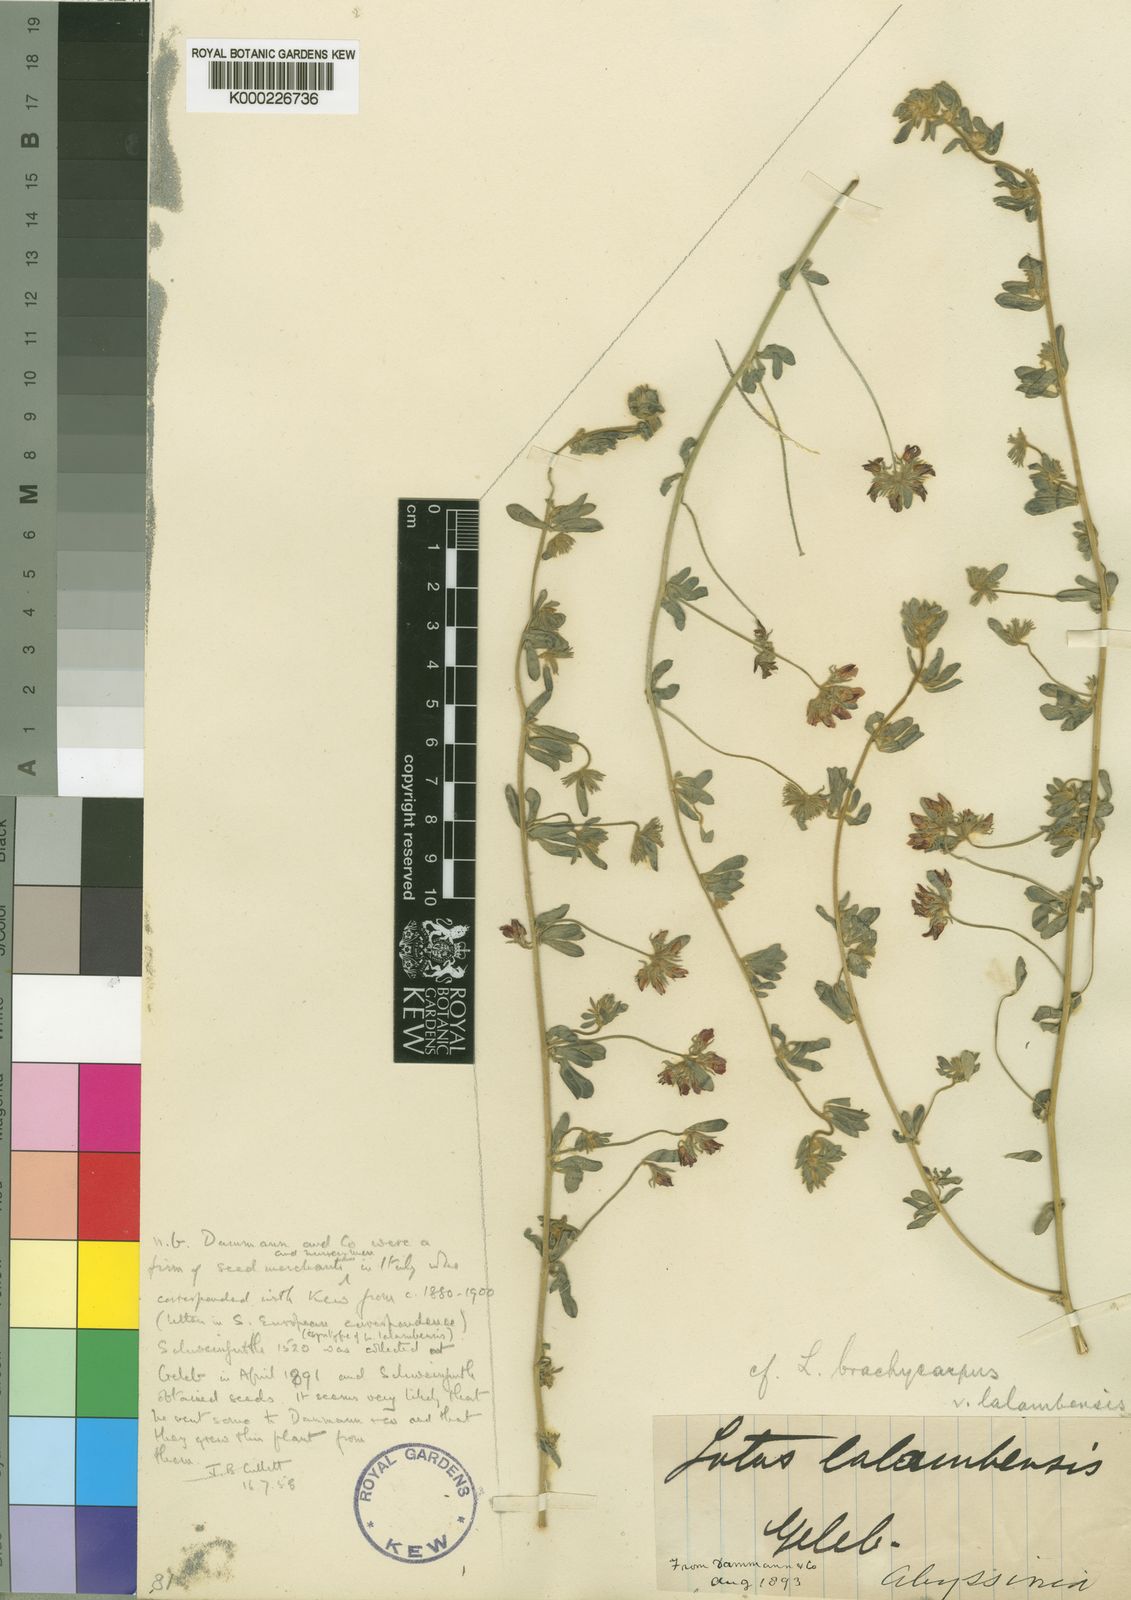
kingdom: Plantae
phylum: Tracheophyta
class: Magnoliopsida
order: Fabales
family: Fabaceae
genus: Lotus
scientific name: Lotus lalambensis
